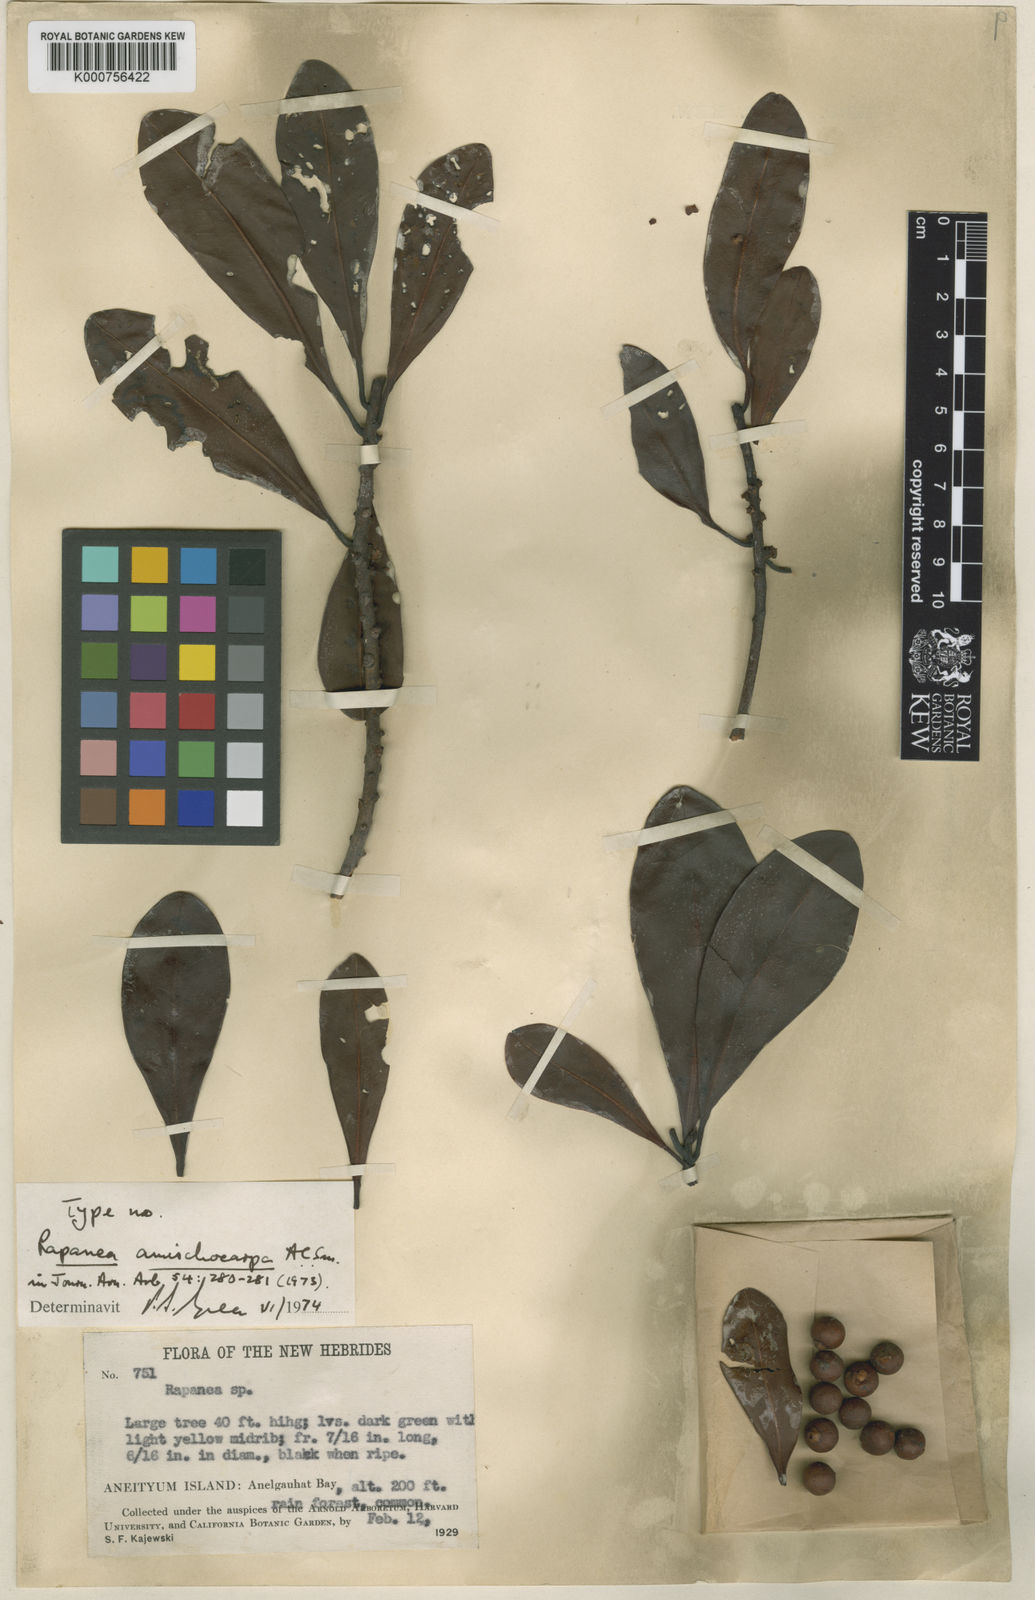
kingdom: Plantae
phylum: Tracheophyta
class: Magnoliopsida
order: Ericales
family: Primulaceae
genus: Myrsine
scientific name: Myrsine amischocarpa
